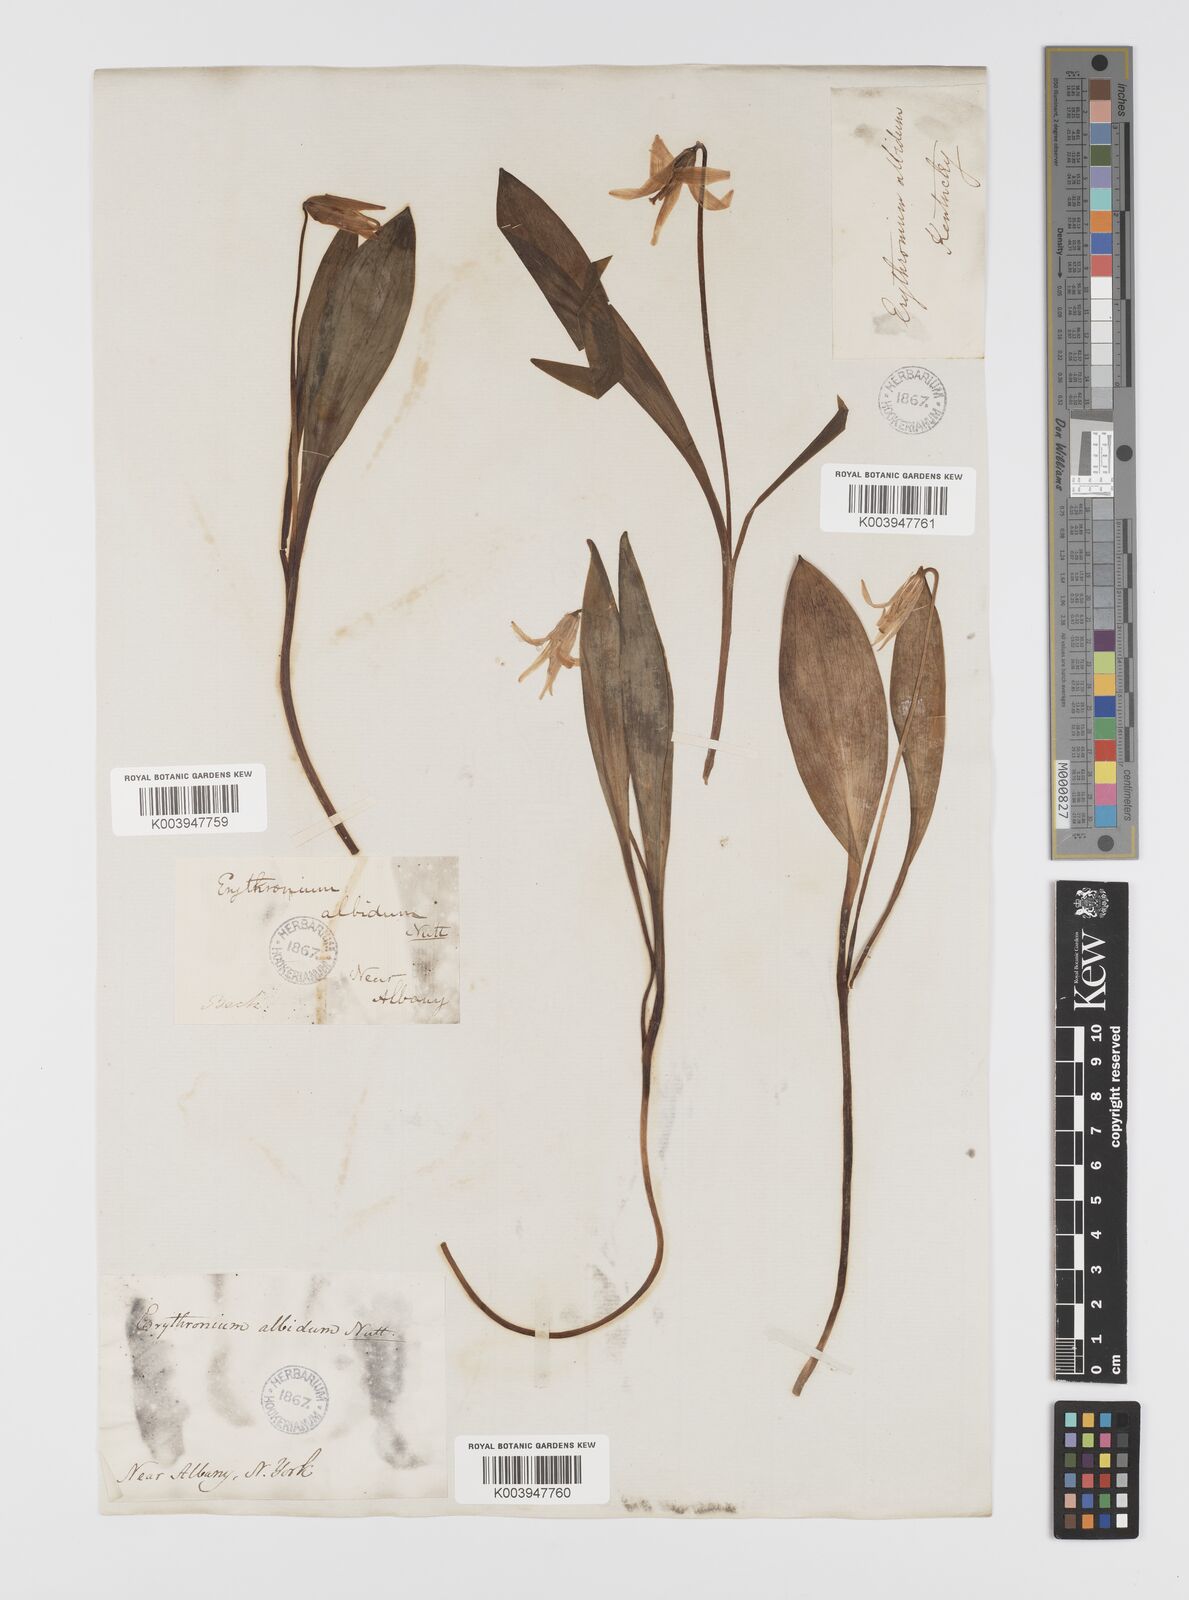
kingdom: Plantae
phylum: Tracheophyta
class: Liliopsida
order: Liliales
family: Liliaceae
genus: Erythronium
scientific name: Erythronium albidum
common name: White trout-lily
